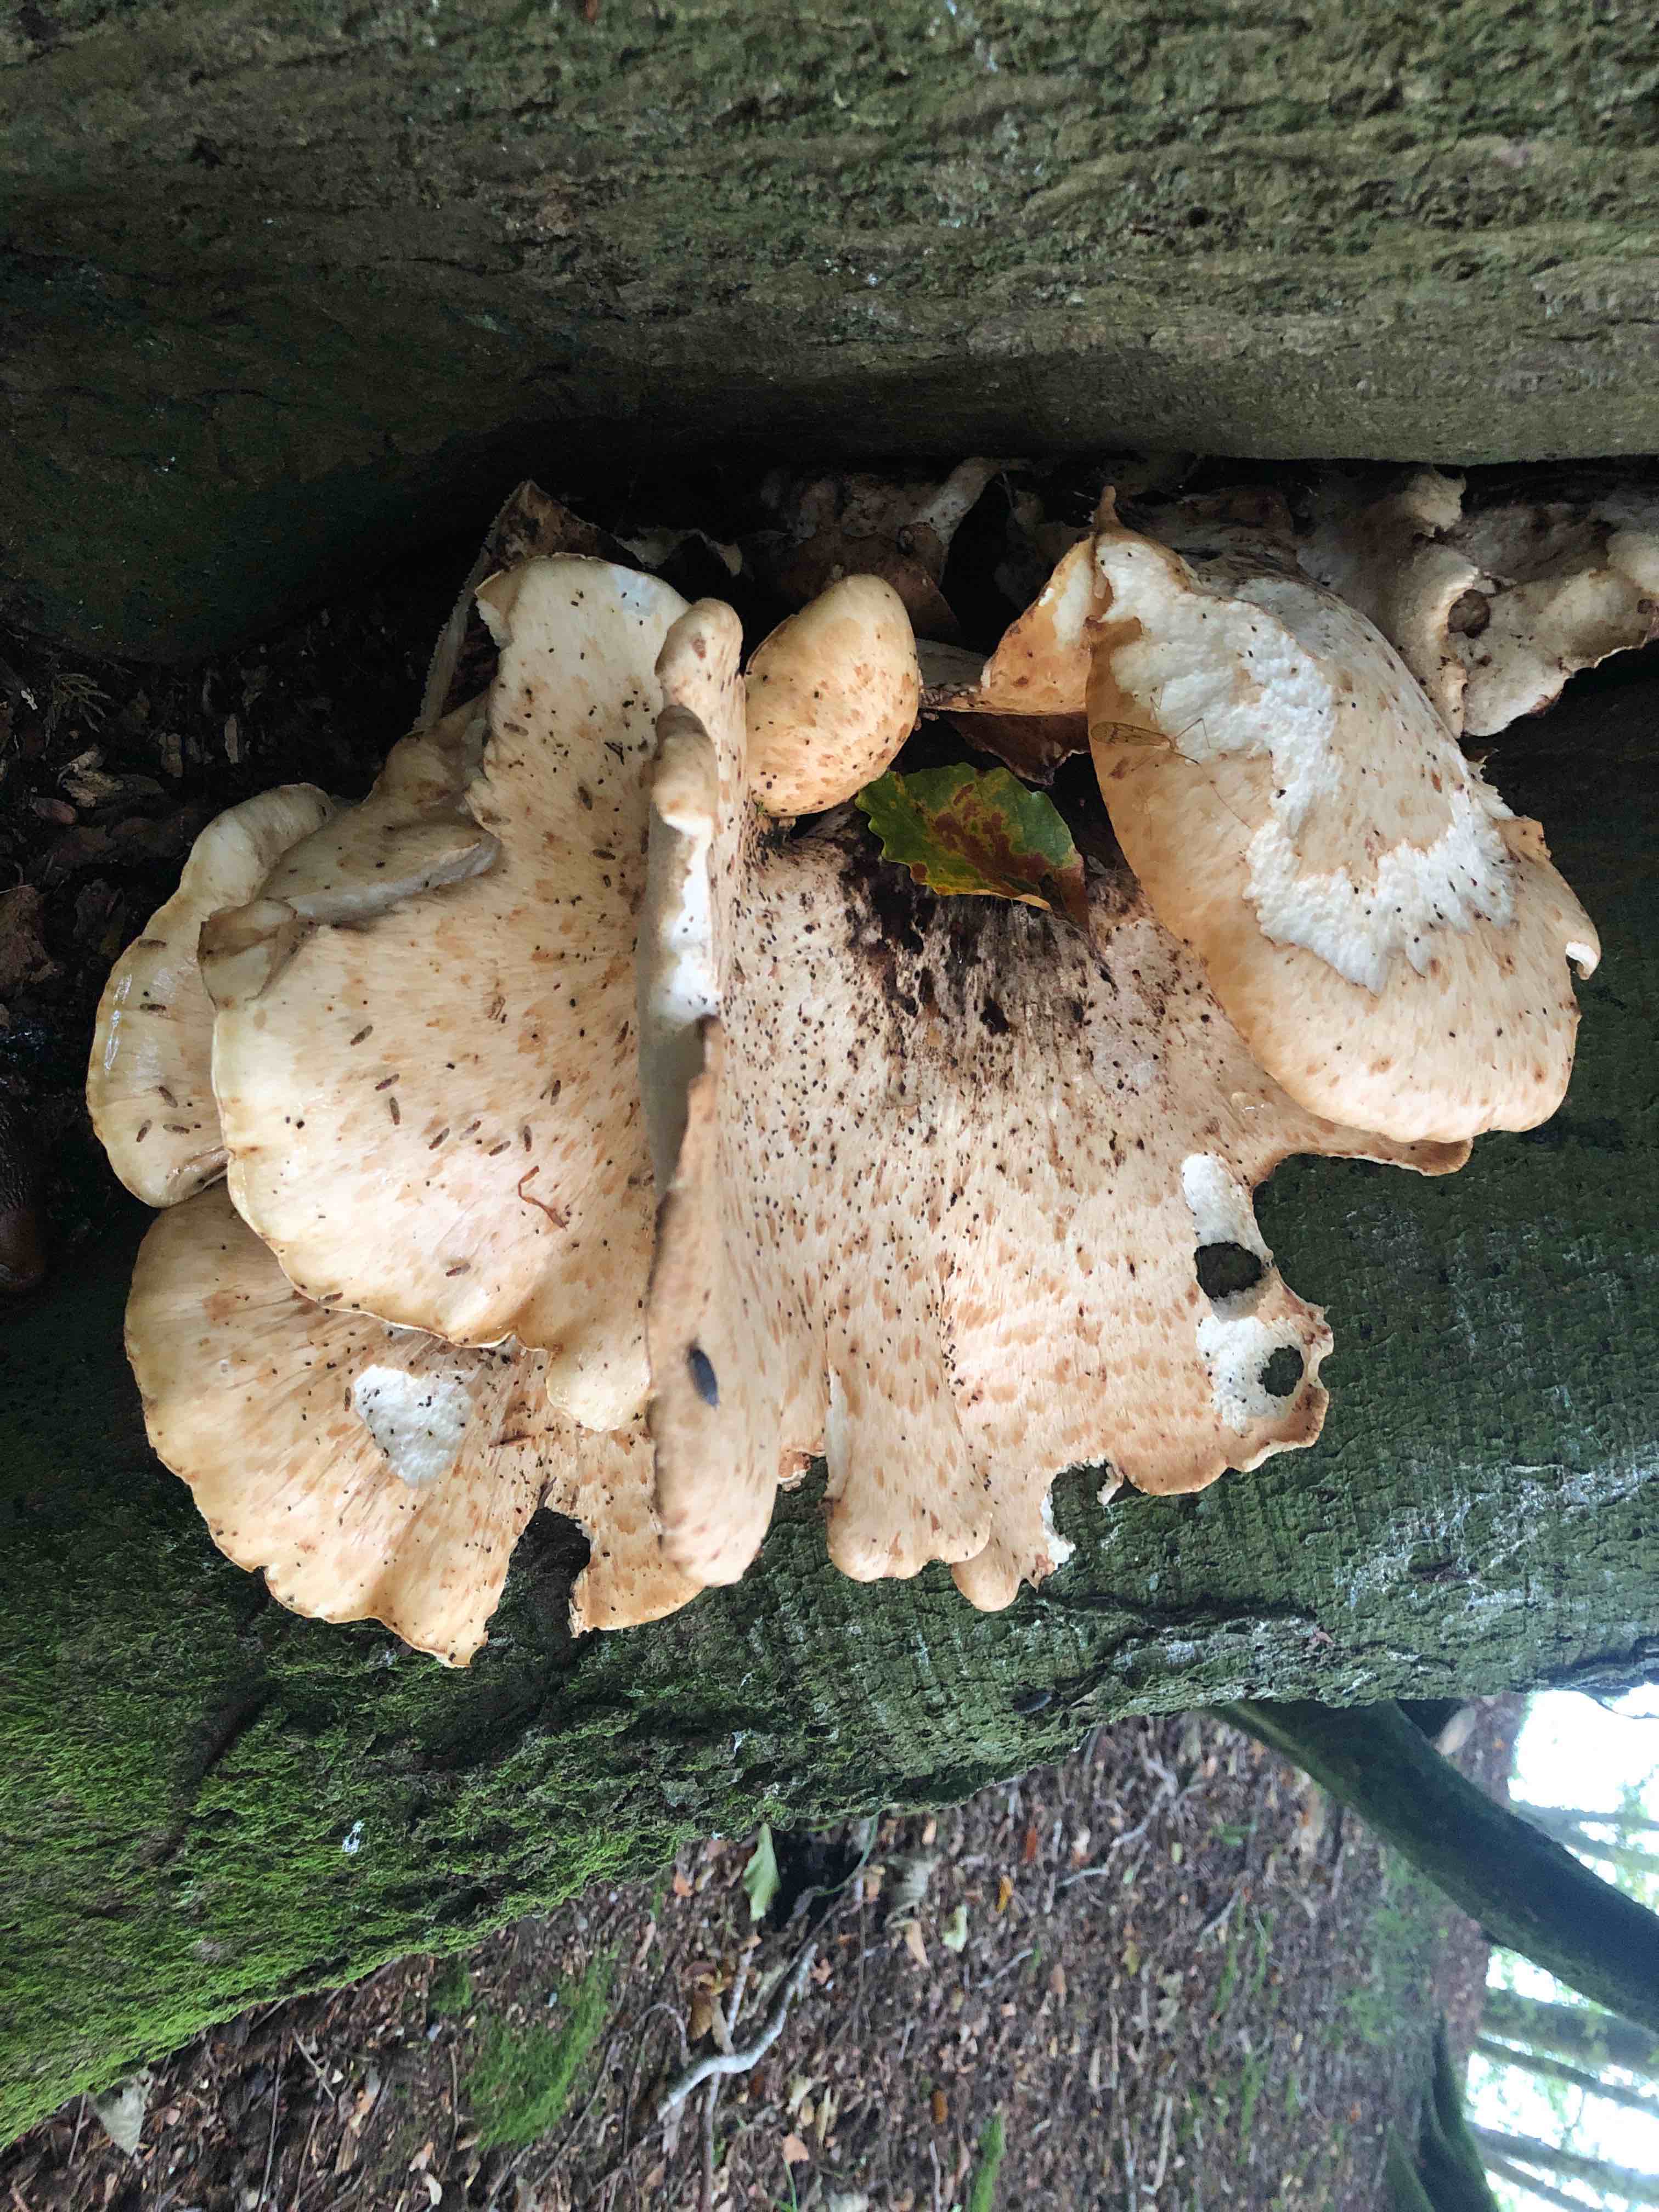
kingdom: Fungi
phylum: Basidiomycota
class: Agaricomycetes
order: Polyporales
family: Polyporaceae
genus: Cerioporus
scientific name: Cerioporus squamosus
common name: skællet stilkporesvamp
